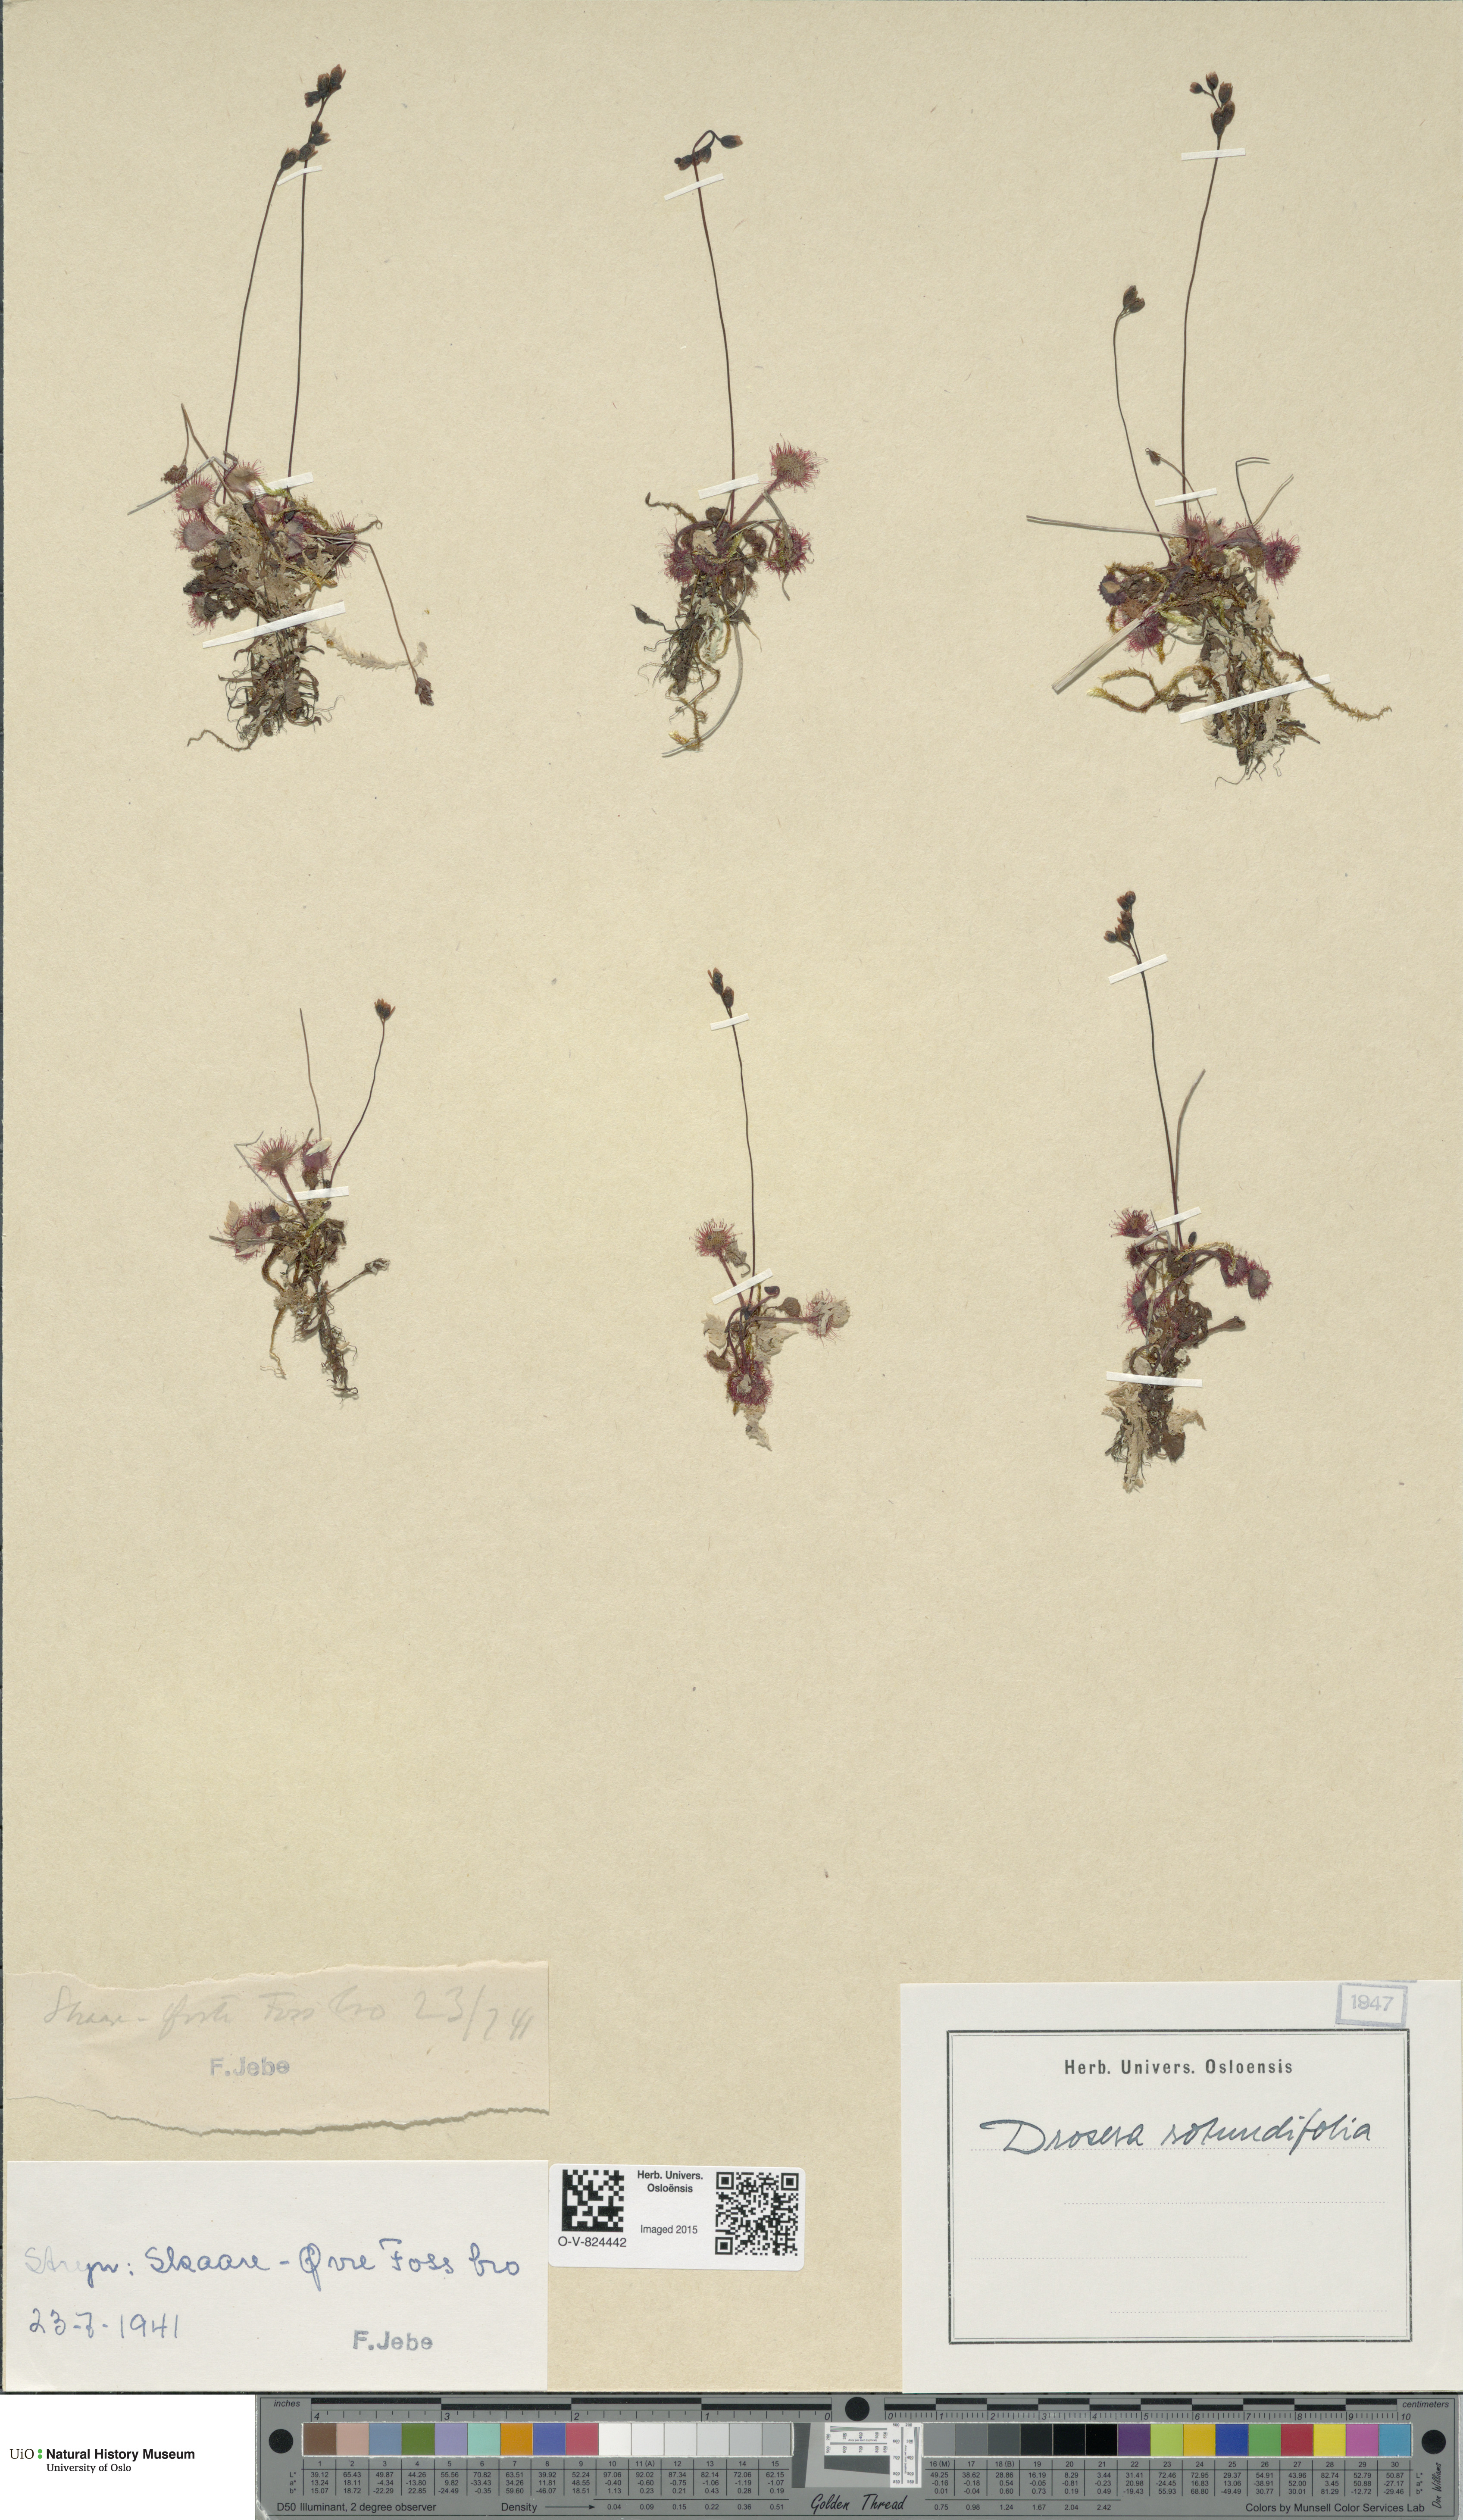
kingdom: Plantae
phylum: Tracheophyta
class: Magnoliopsida
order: Caryophyllales
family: Droseraceae
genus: Drosera
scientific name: Drosera rotundifolia
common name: Round-leaved sundew
